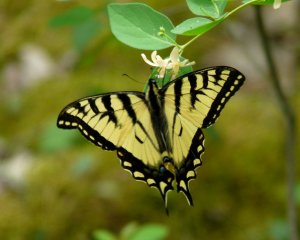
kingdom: Animalia
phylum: Arthropoda
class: Insecta
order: Lepidoptera
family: Papilionidae
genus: Pterourus
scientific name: Pterourus canadensis
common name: Canadian Tiger Swallowtail
